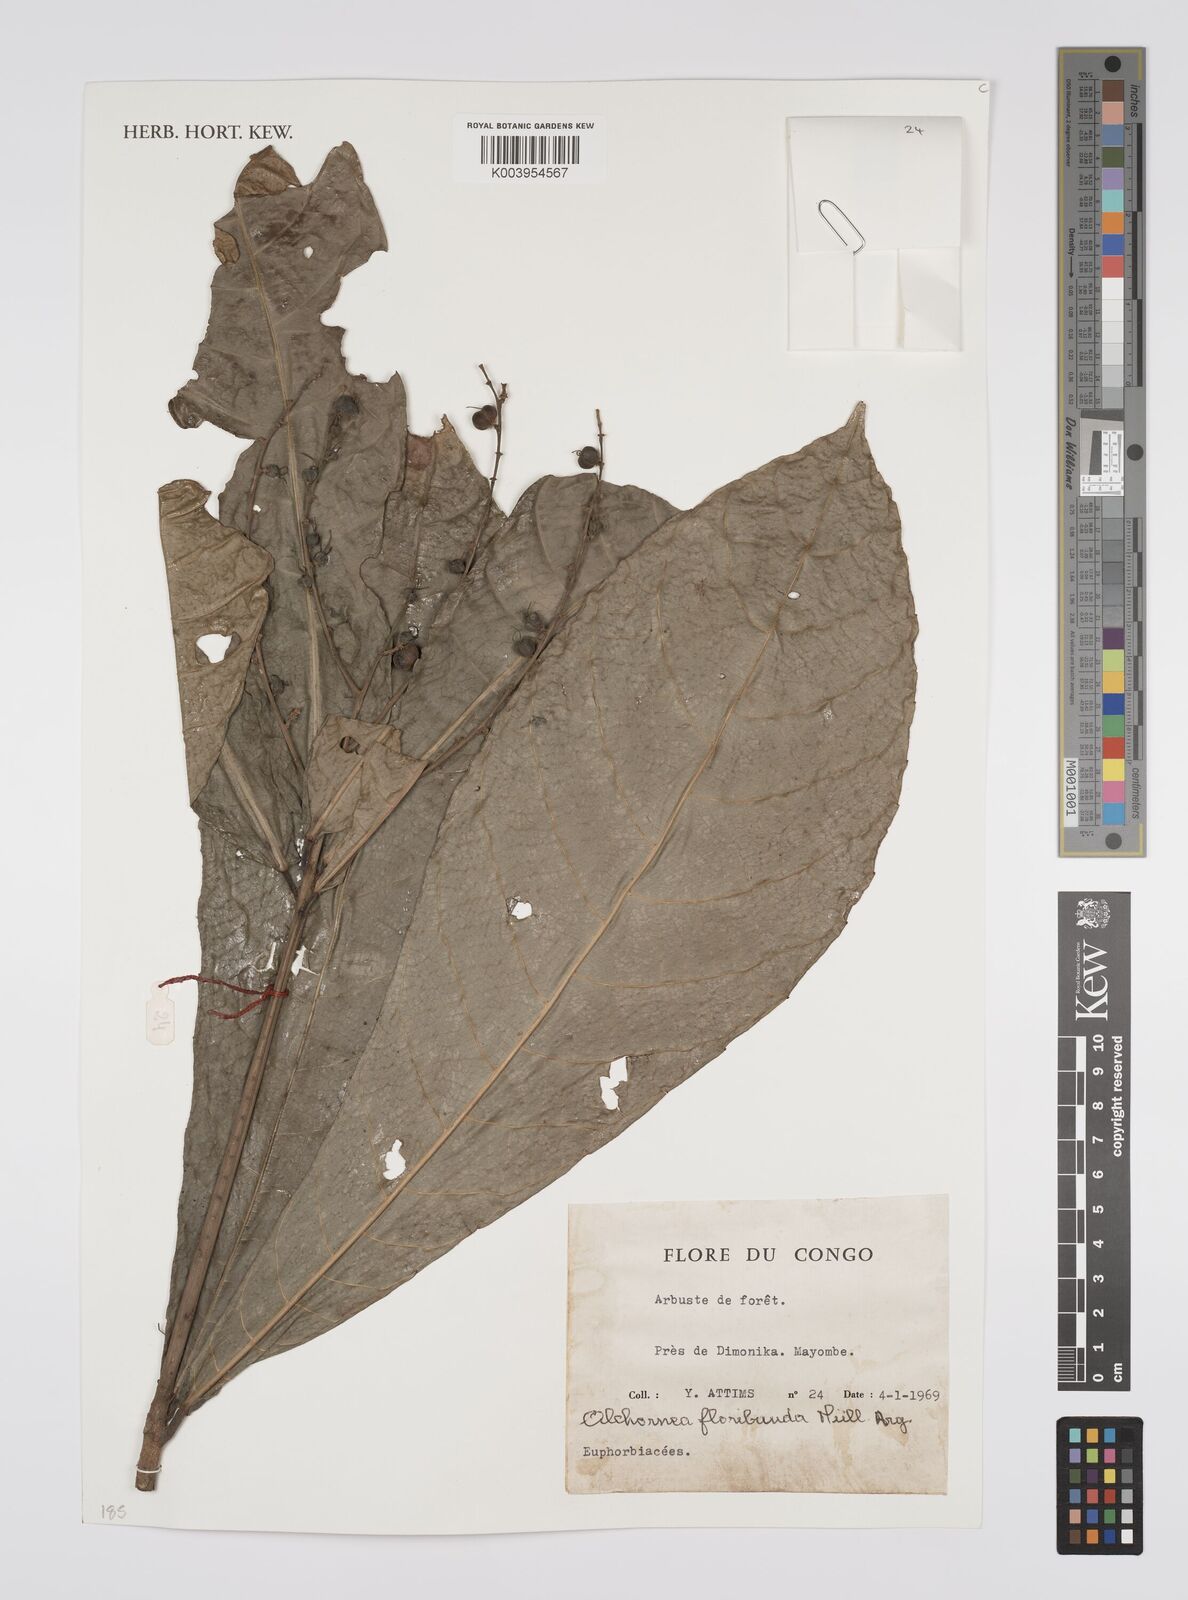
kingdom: Plantae
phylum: Tracheophyta
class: Magnoliopsida
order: Malpighiales
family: Euphorbiaceae
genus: Alchornea
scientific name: Alchornea floribunda
